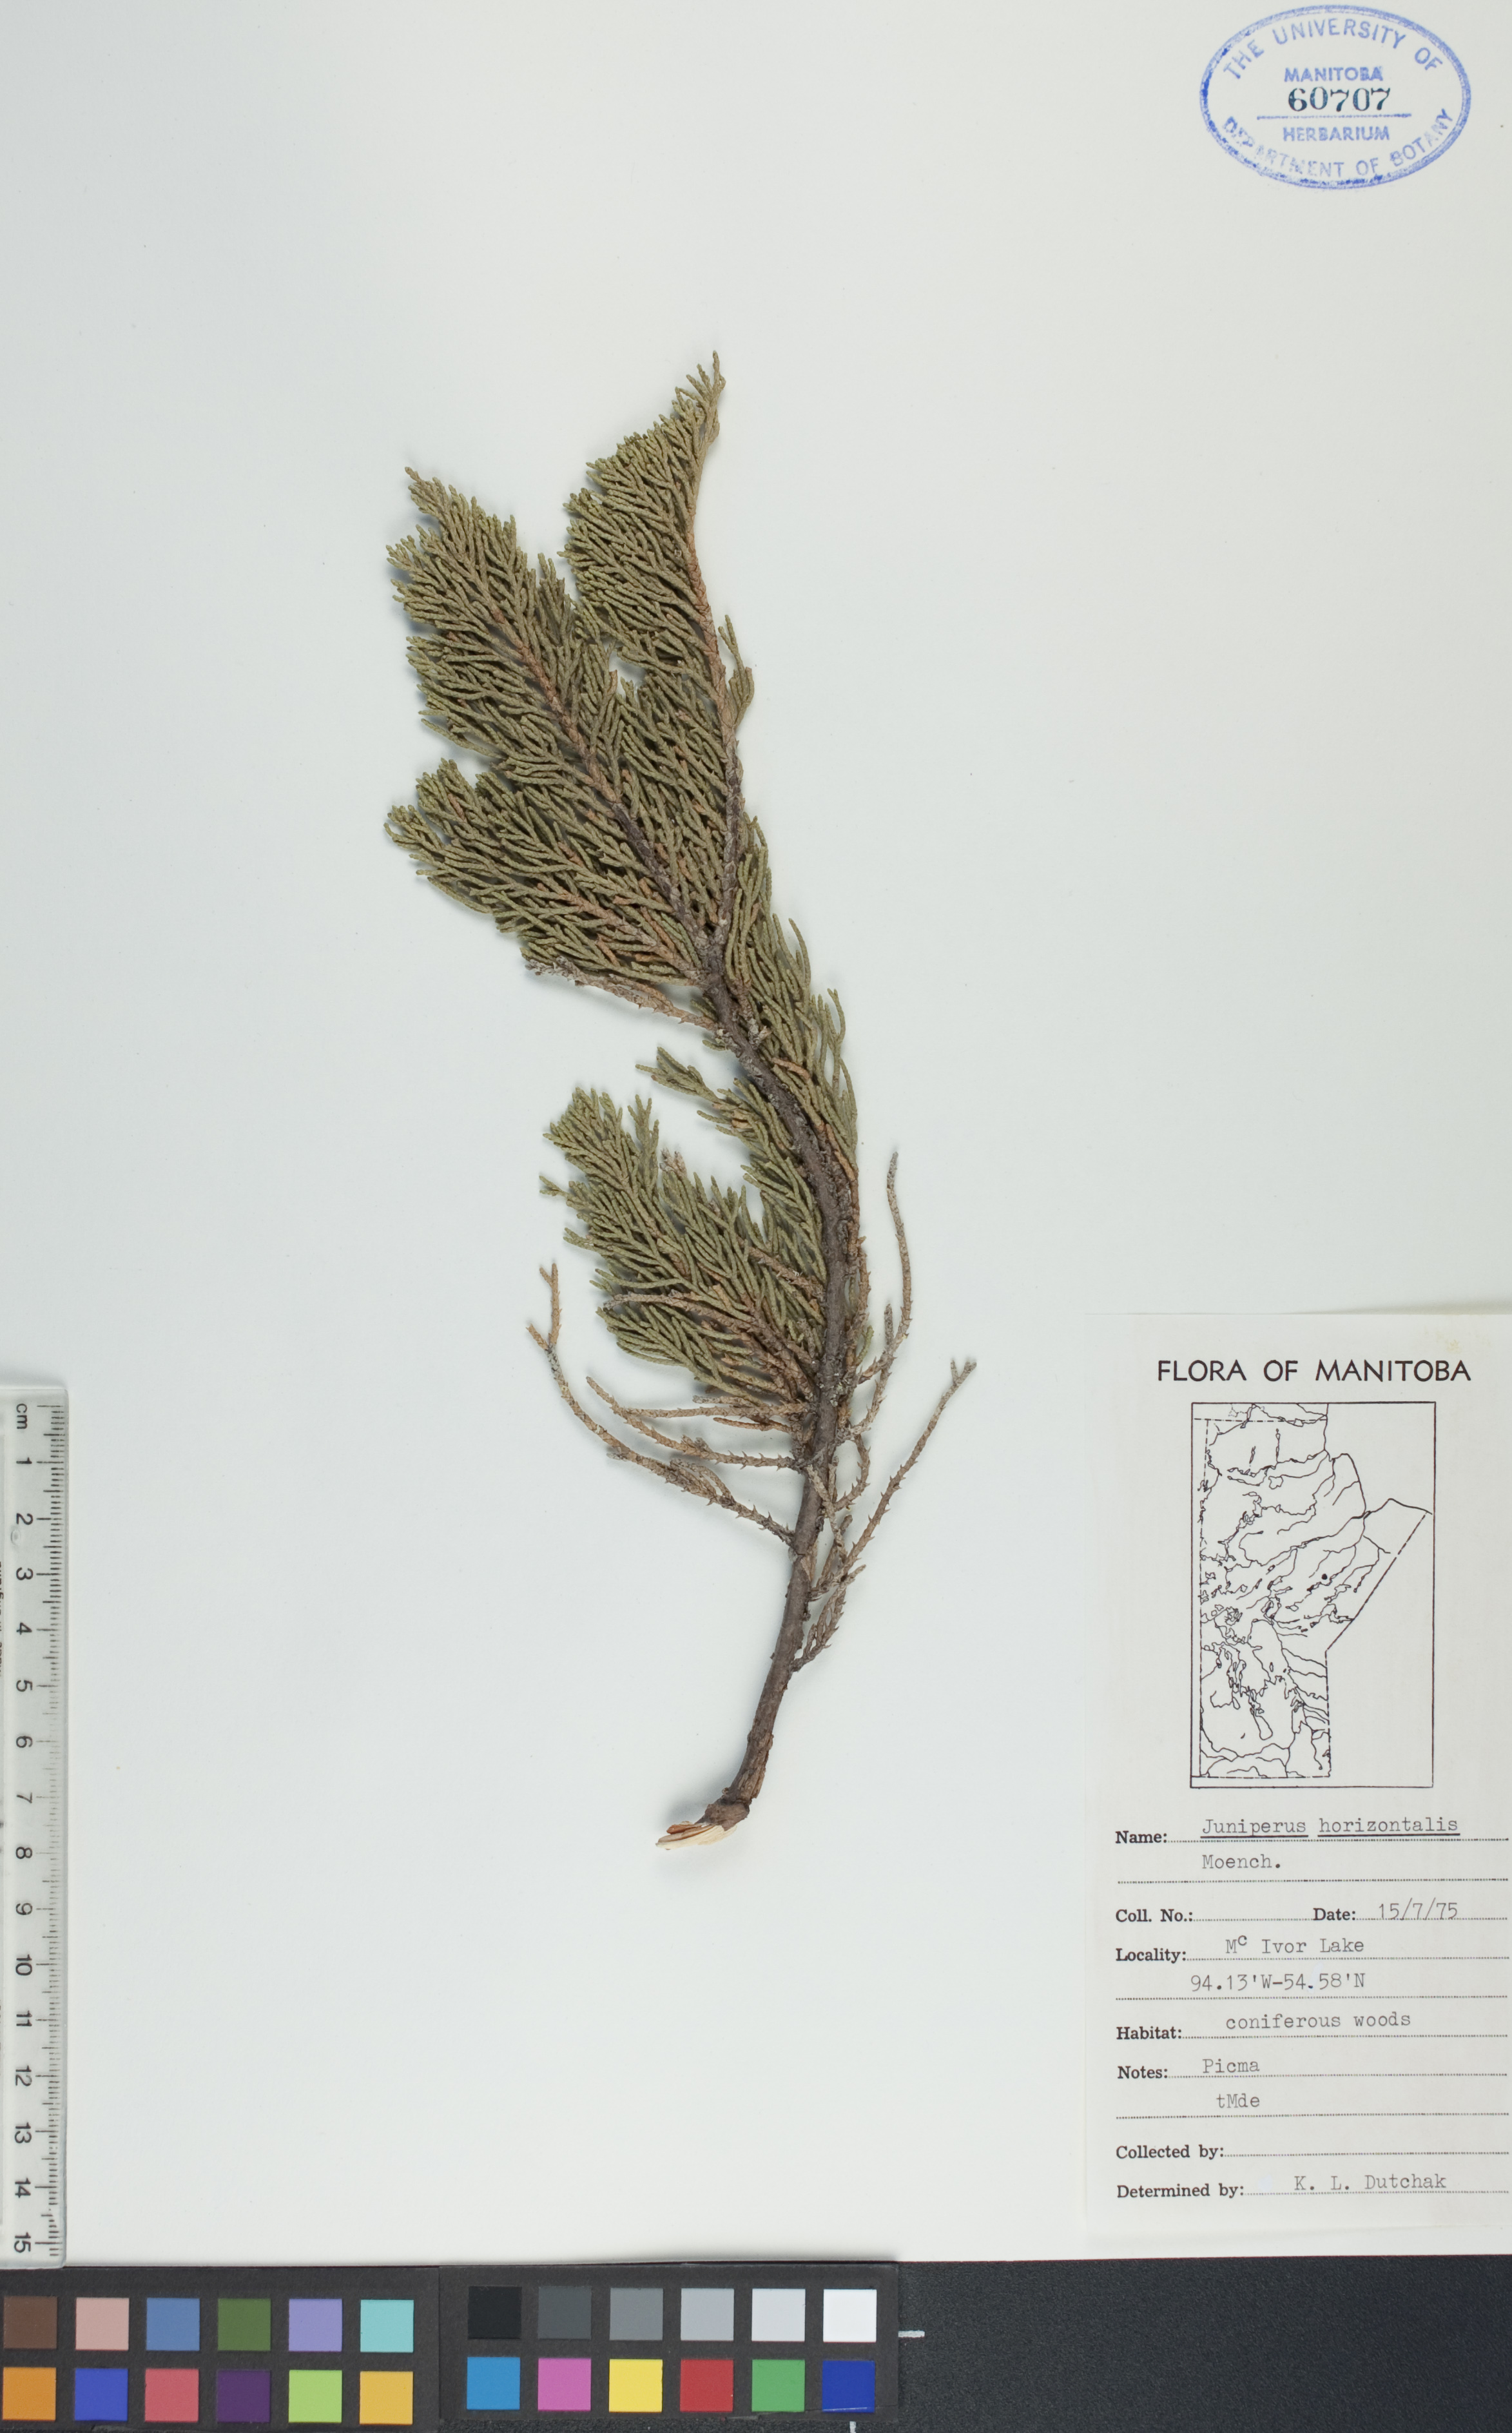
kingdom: Plantae
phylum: Tracheophyta
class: Pinopsida
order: Pinales
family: Cupressaceae
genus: Juniperus
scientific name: Juniperus horizontalis
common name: Creeping juniper
